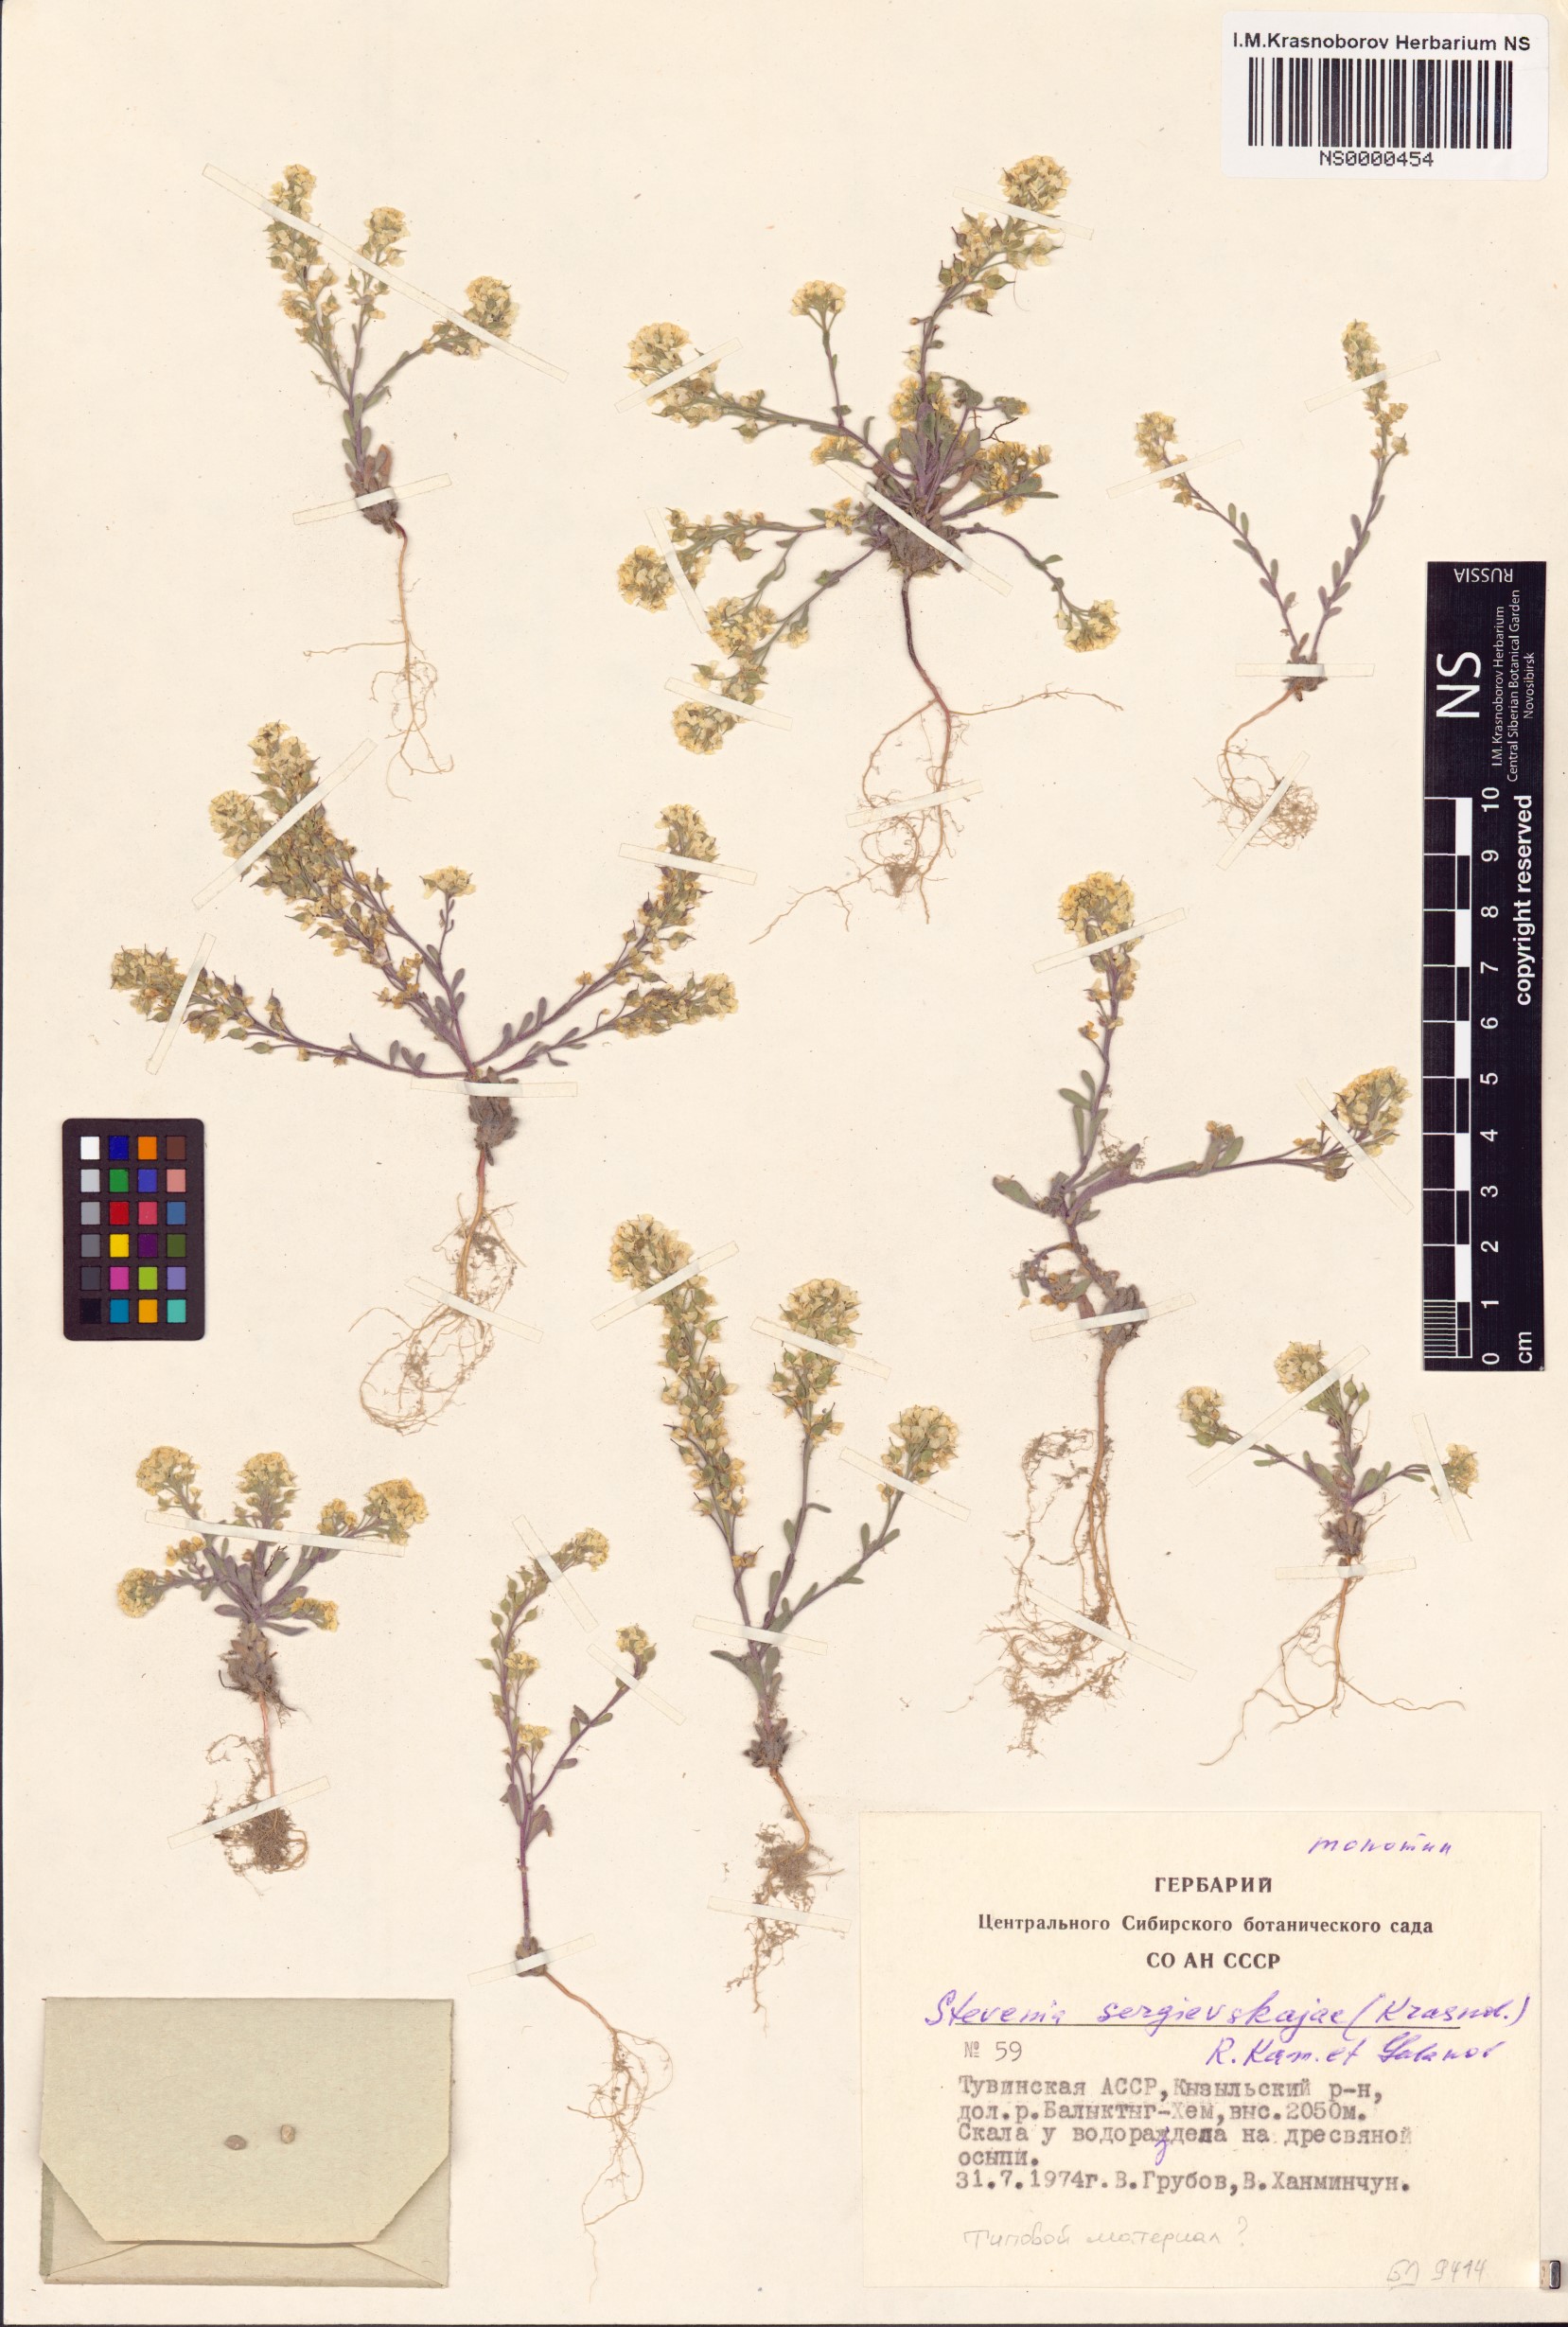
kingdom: Plantae
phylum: Tracheophyta
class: Magnoliopsida
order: Brassicales
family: Brassicaceae
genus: Stevenia
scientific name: Stevenia sergievskajae
